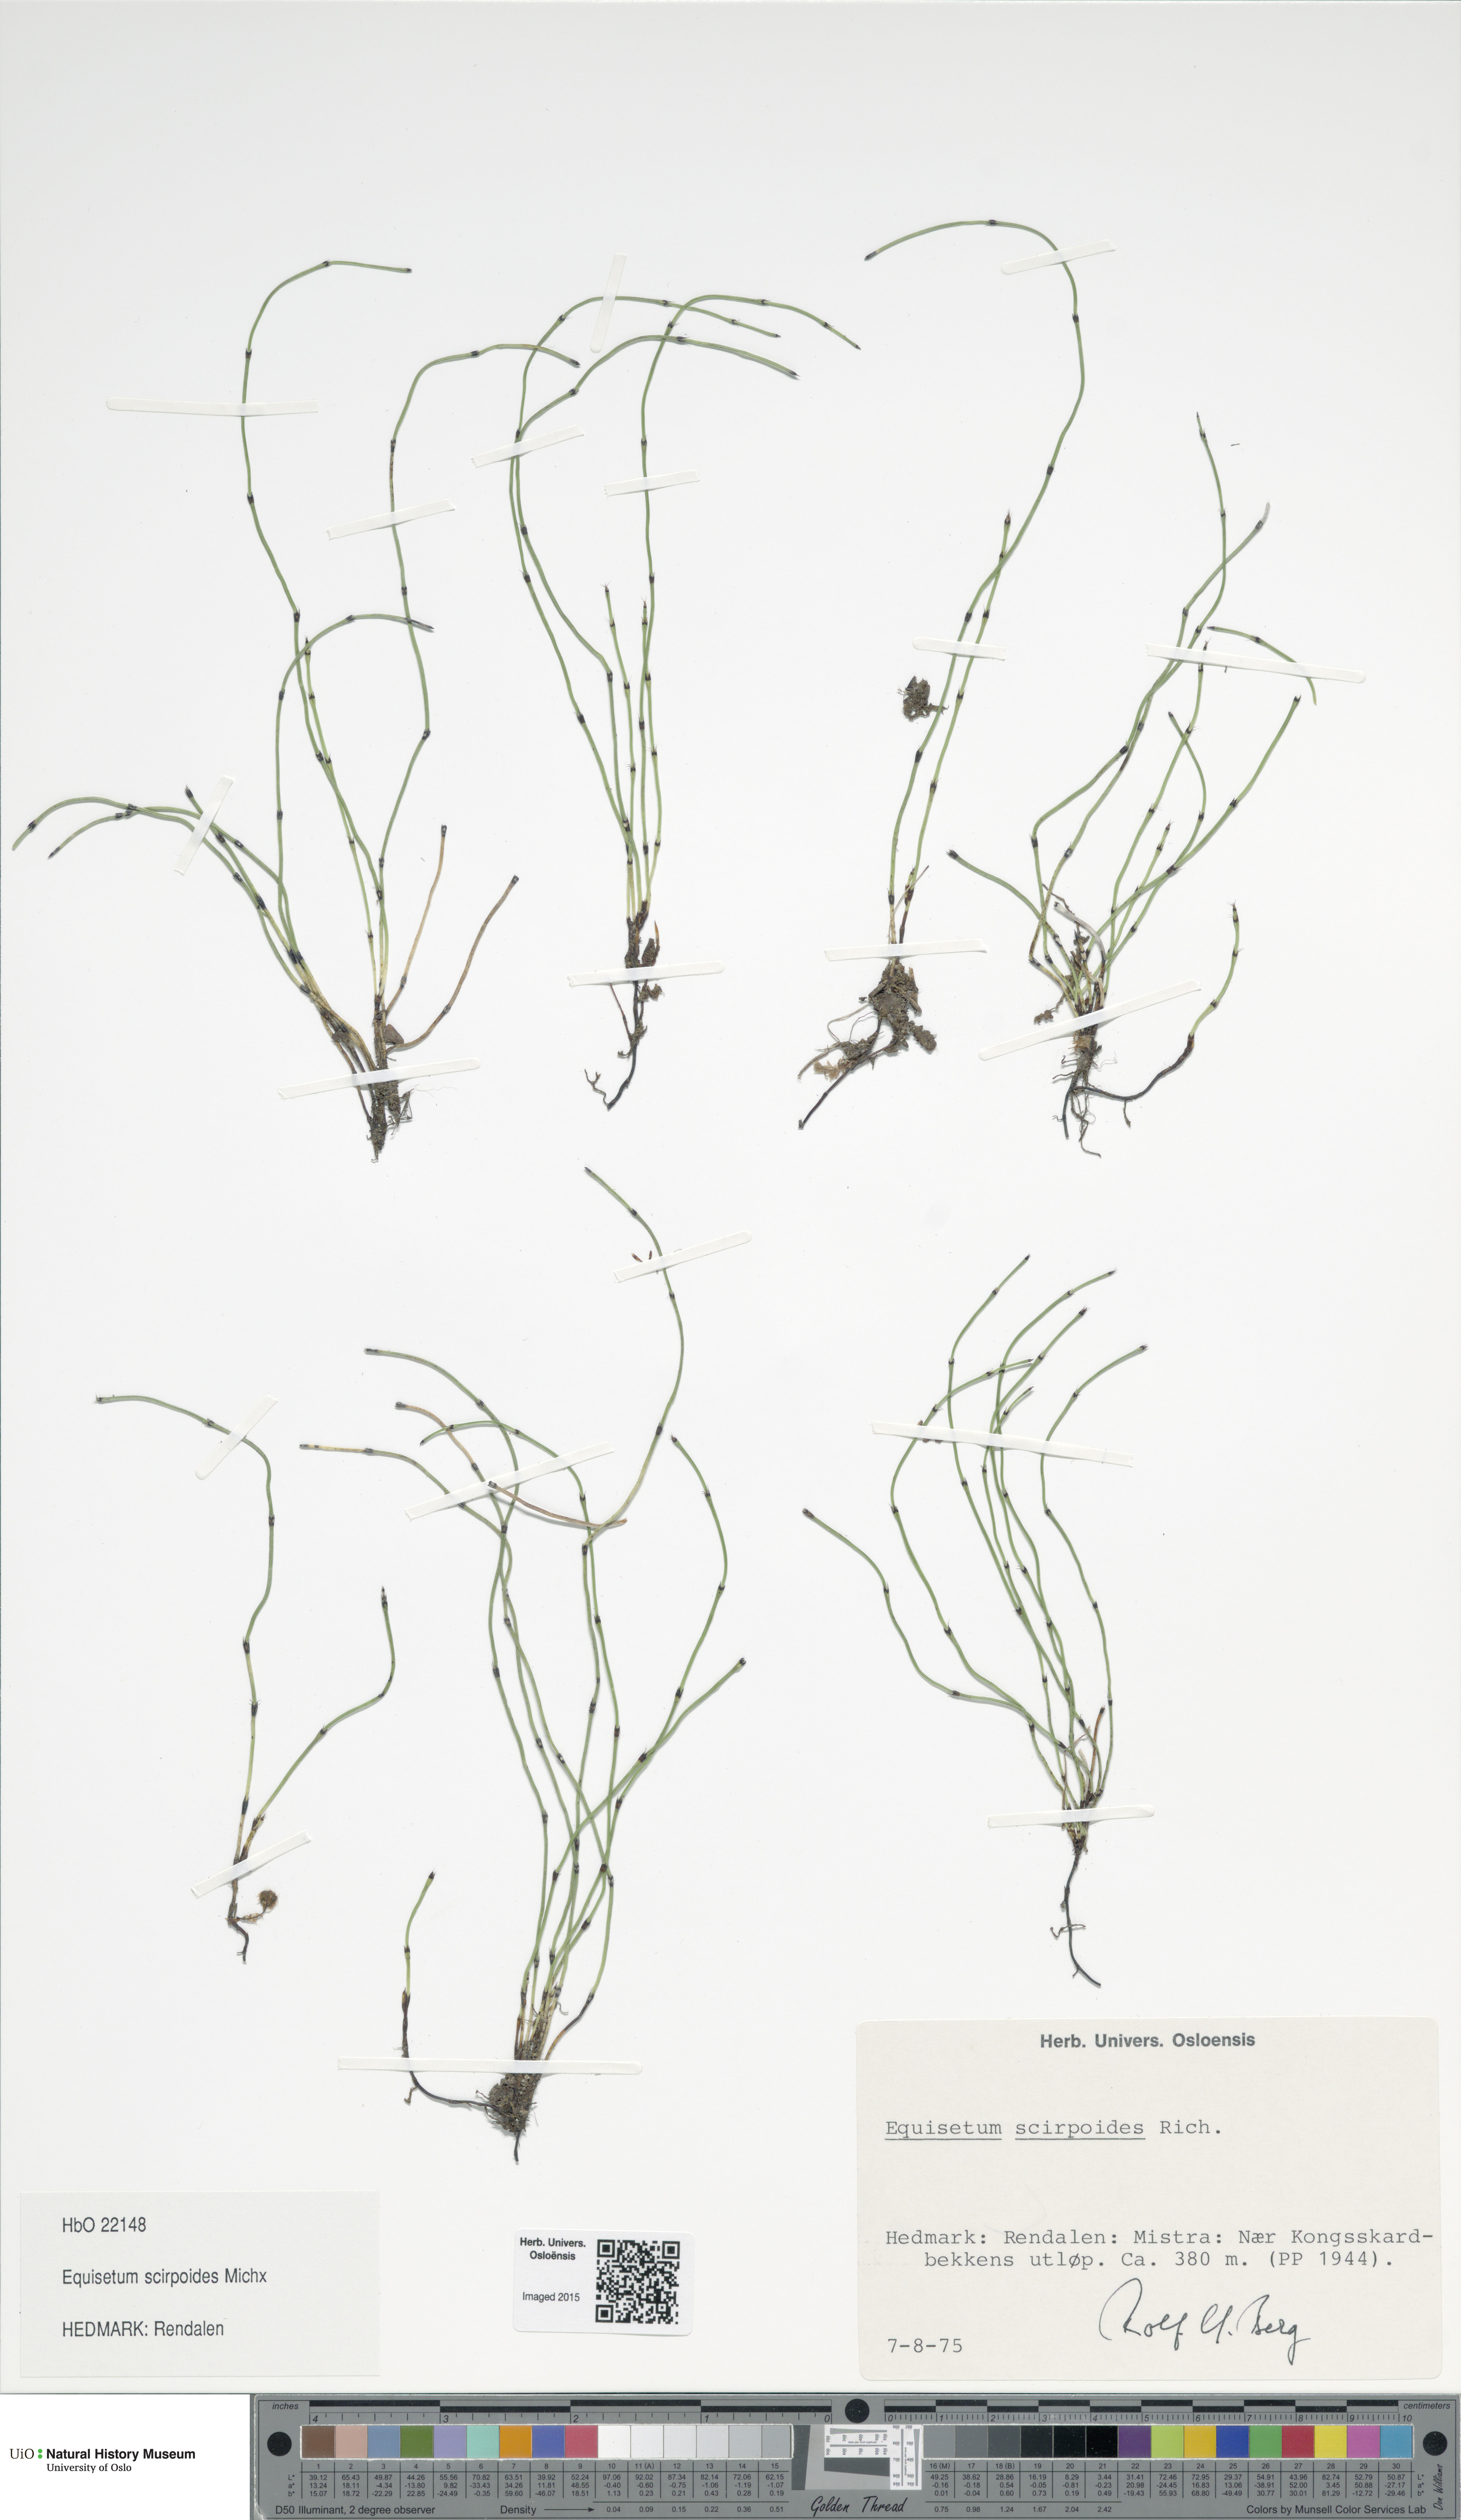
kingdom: Plantae
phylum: Tracheophyta
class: Polypodiopsida
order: Equisetales
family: Equisetaceae
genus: Equisetum
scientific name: Equisetum scirpoides
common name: Delicate horsetail
